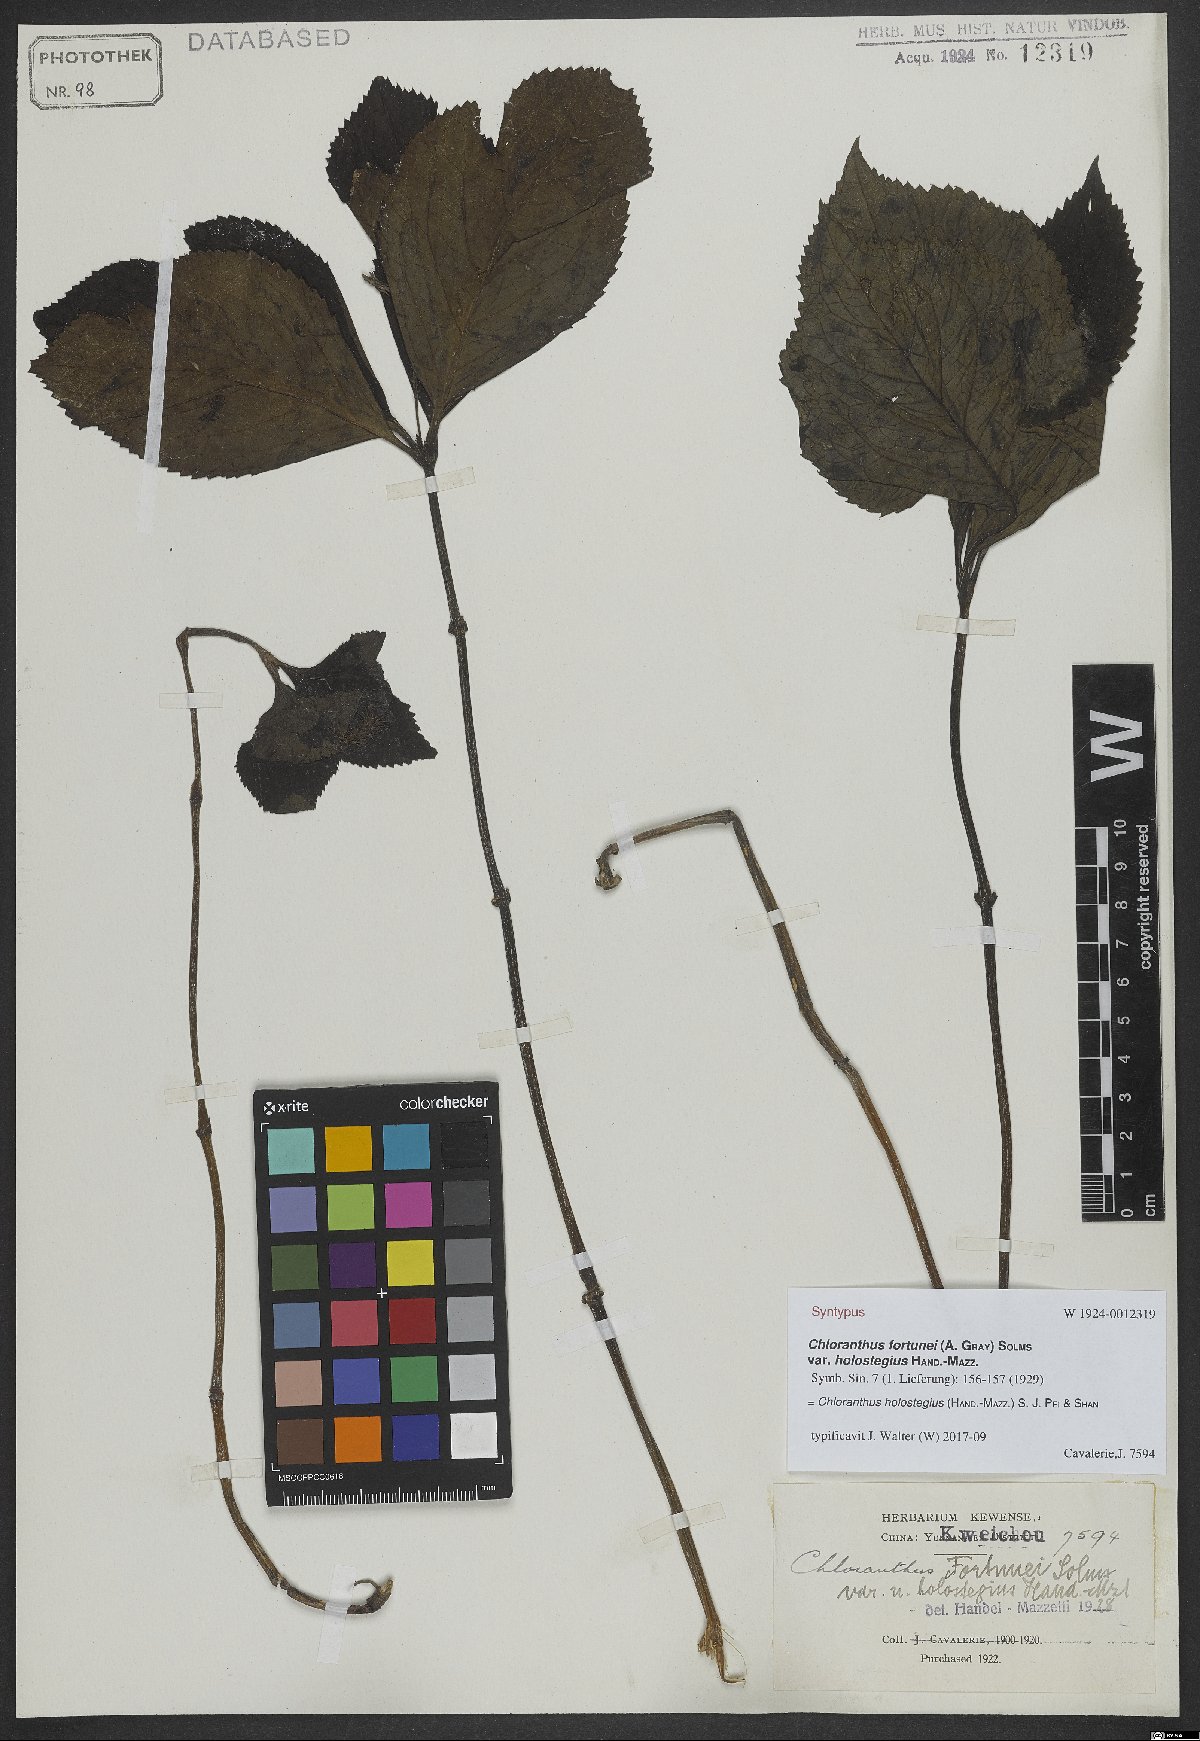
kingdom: Plantae
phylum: Tracheophyta
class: Magnoliopsida
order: Chloranthales
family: Chloranthaceae
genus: Chloranthus
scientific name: Chloranthus holostegius
